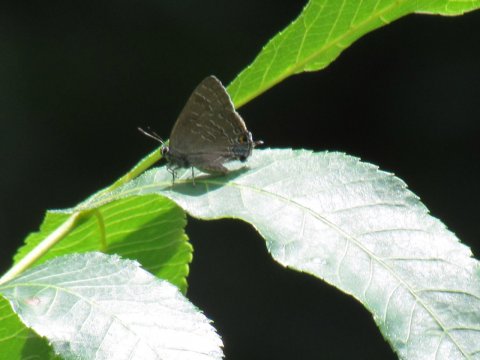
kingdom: Animalia
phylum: Arthropoda
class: Insecta
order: Lepidoptera
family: Lycaenidae
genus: Strymon
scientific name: Strymon caryaevorus
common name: Hickory Hairstreak
